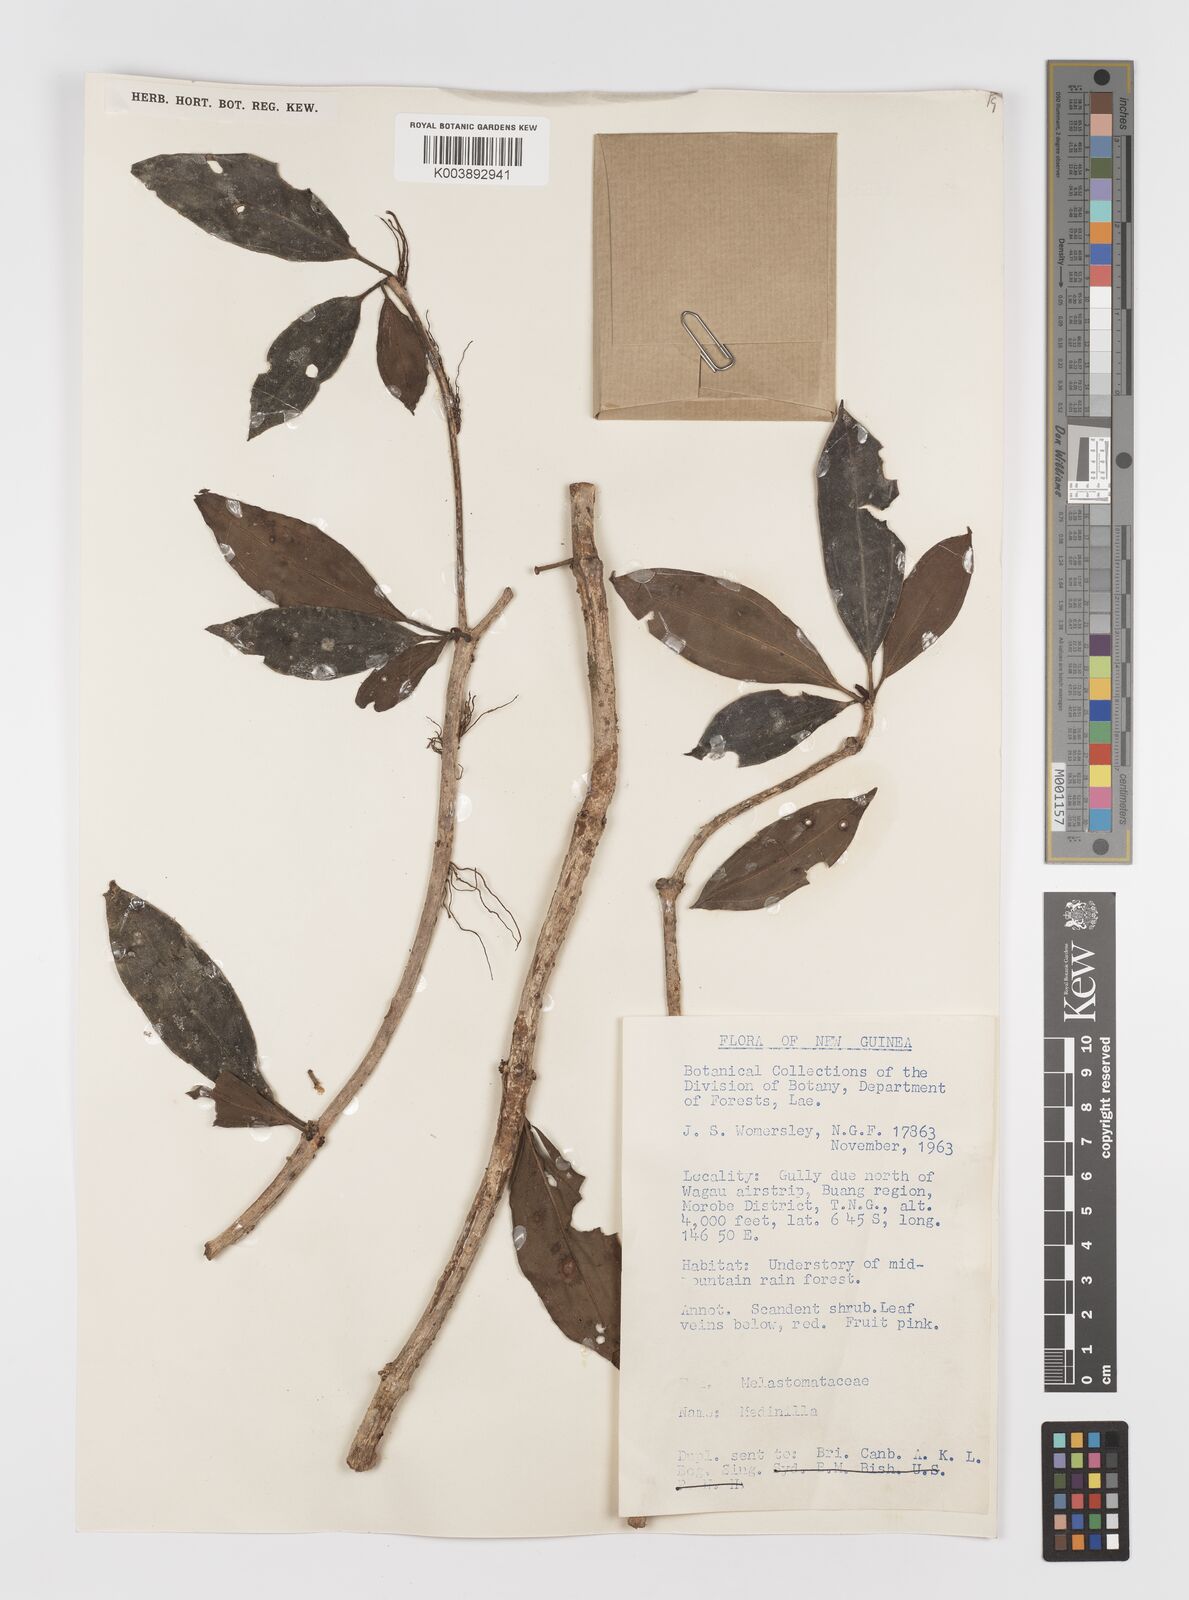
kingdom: Plantae
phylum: Tracheophyta
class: Magnoliopsida
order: Myrtales
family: Melastomataceae
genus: Medinilla
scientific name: Medinilla beddomei
